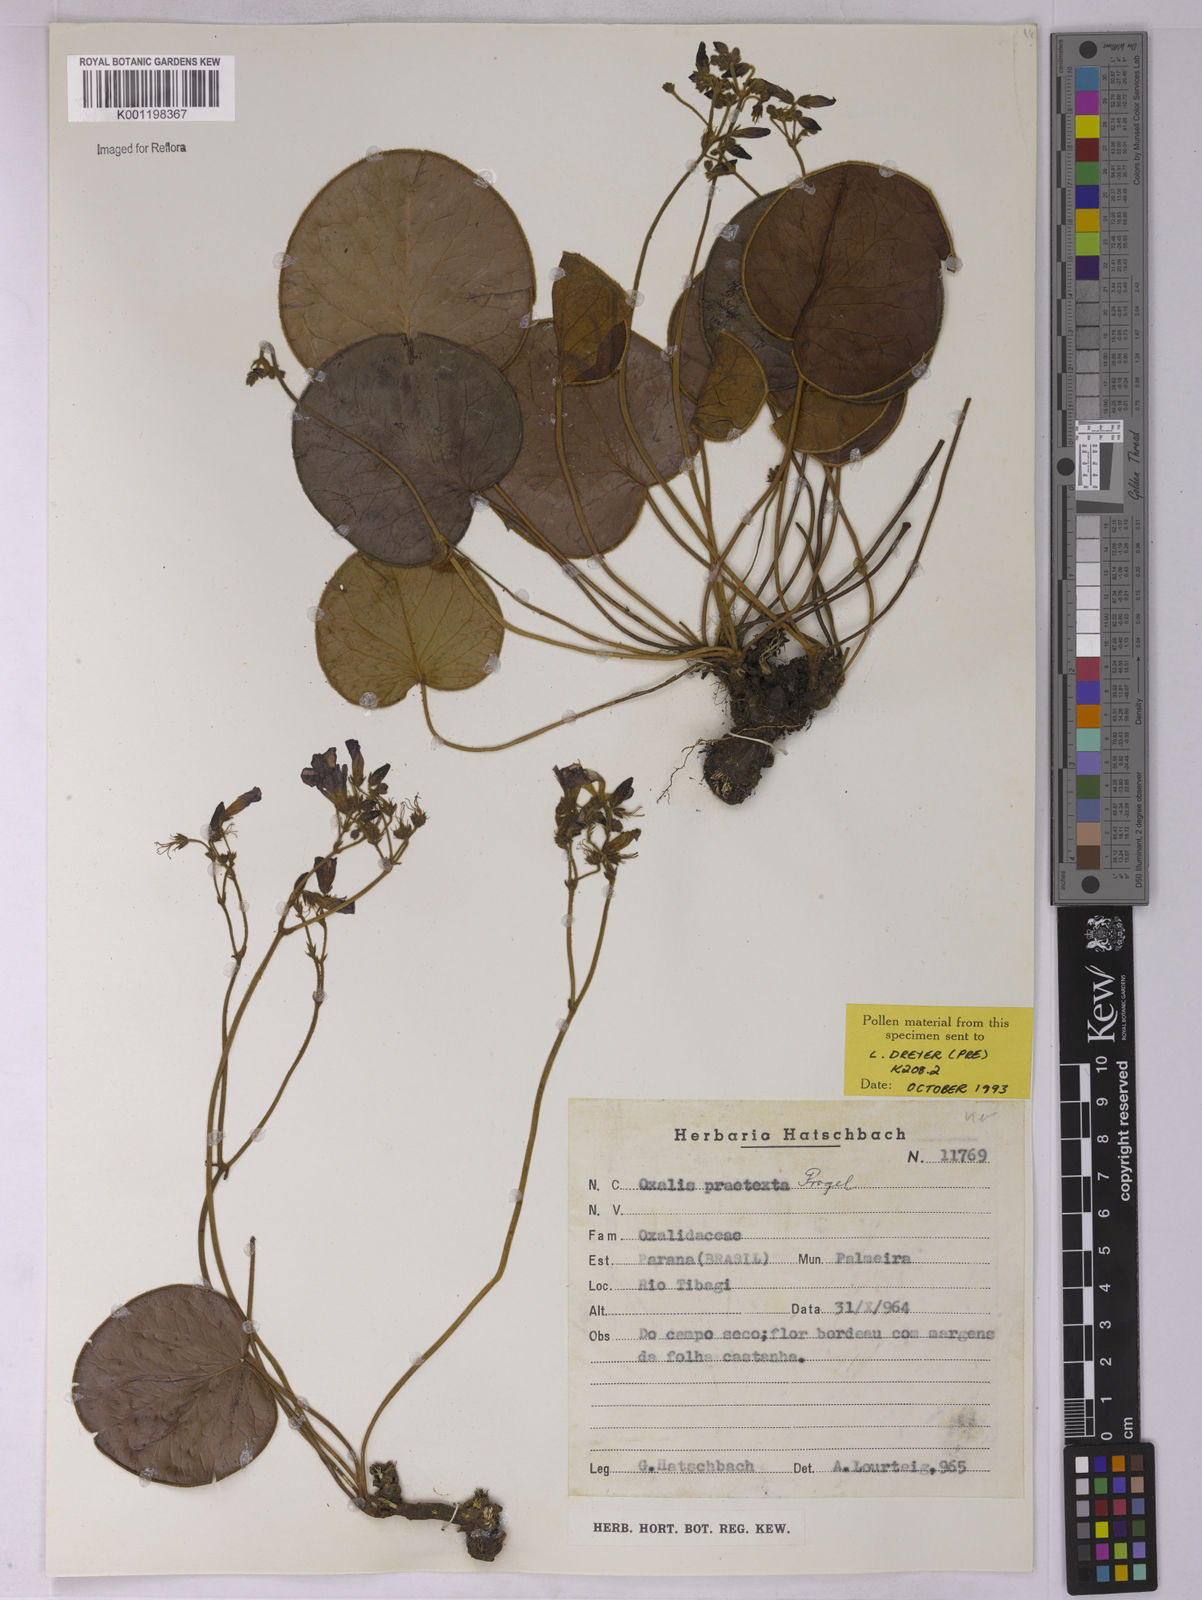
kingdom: Plantae
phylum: Tracheophyta
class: Magnoliopsida
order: Oxalidales
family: Oxalidaceae
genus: Oxalis
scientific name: Oxalis praetexta
